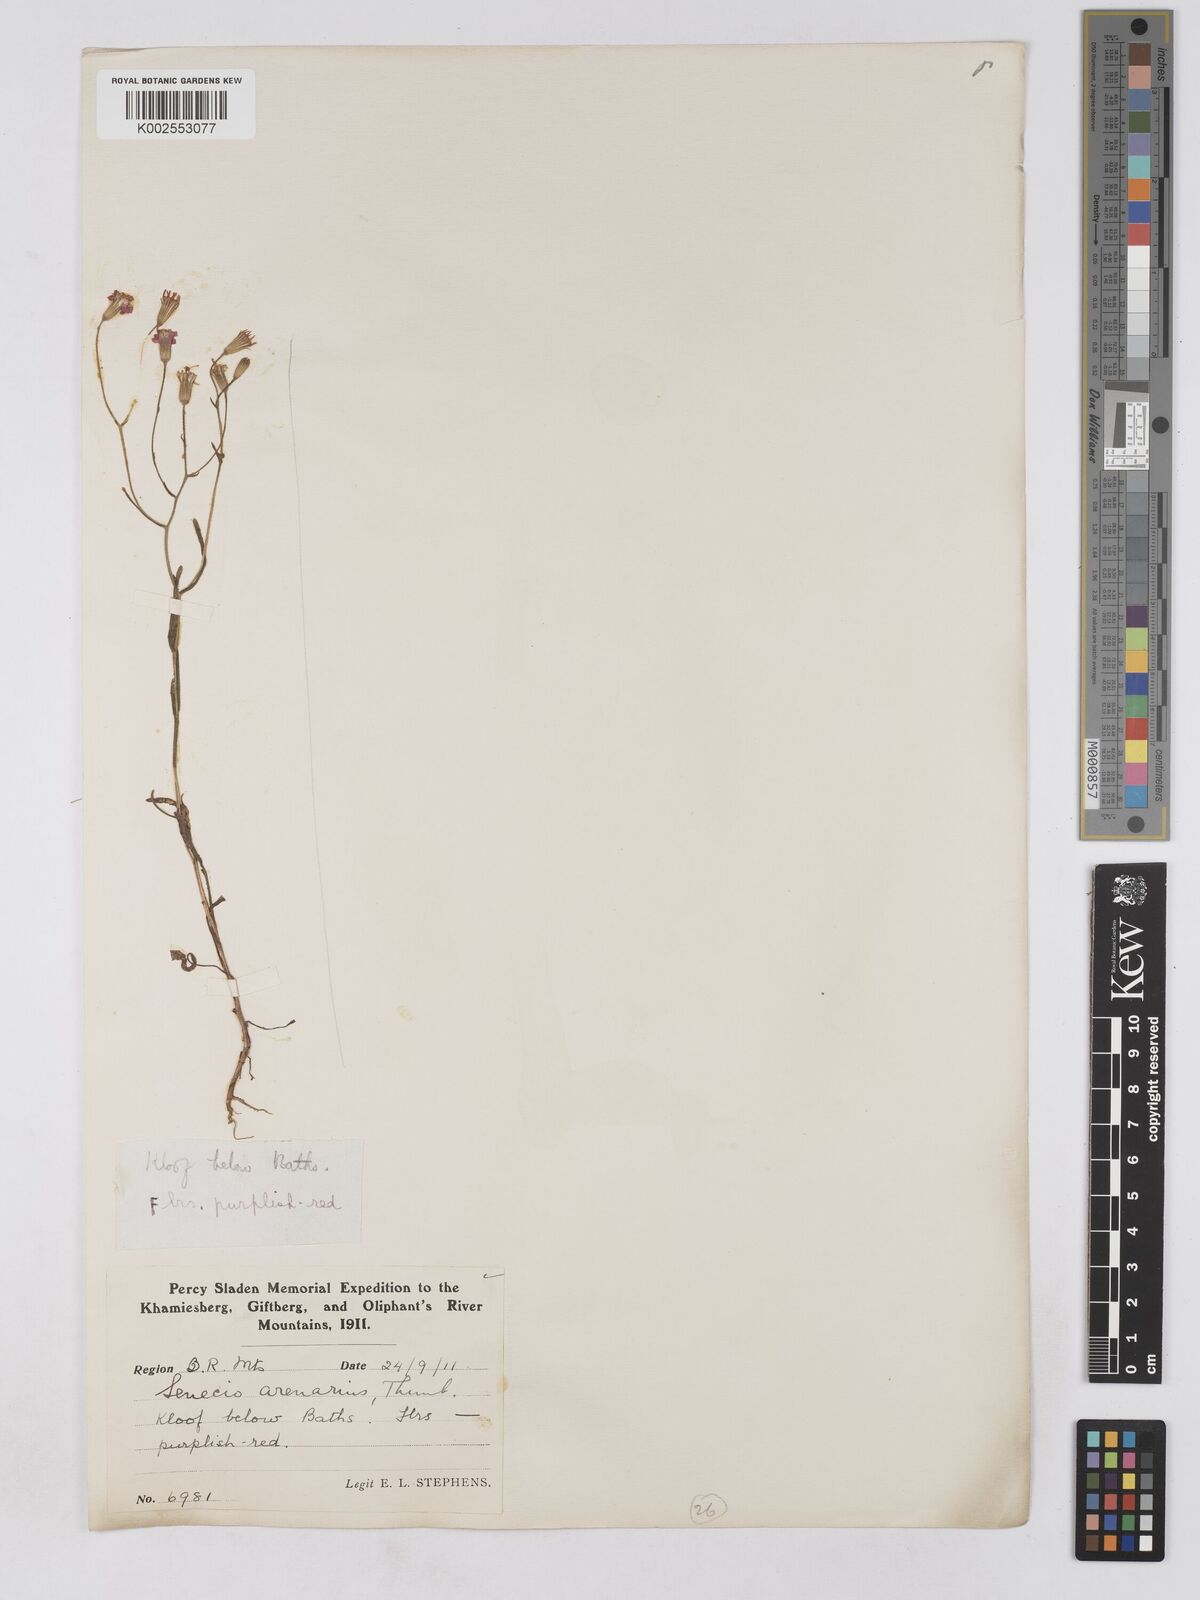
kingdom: Plantae
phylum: Tracheophyta
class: Magnoliopsida
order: Asterales
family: Asteraceae
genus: Senecio
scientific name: Senecio arenarius
